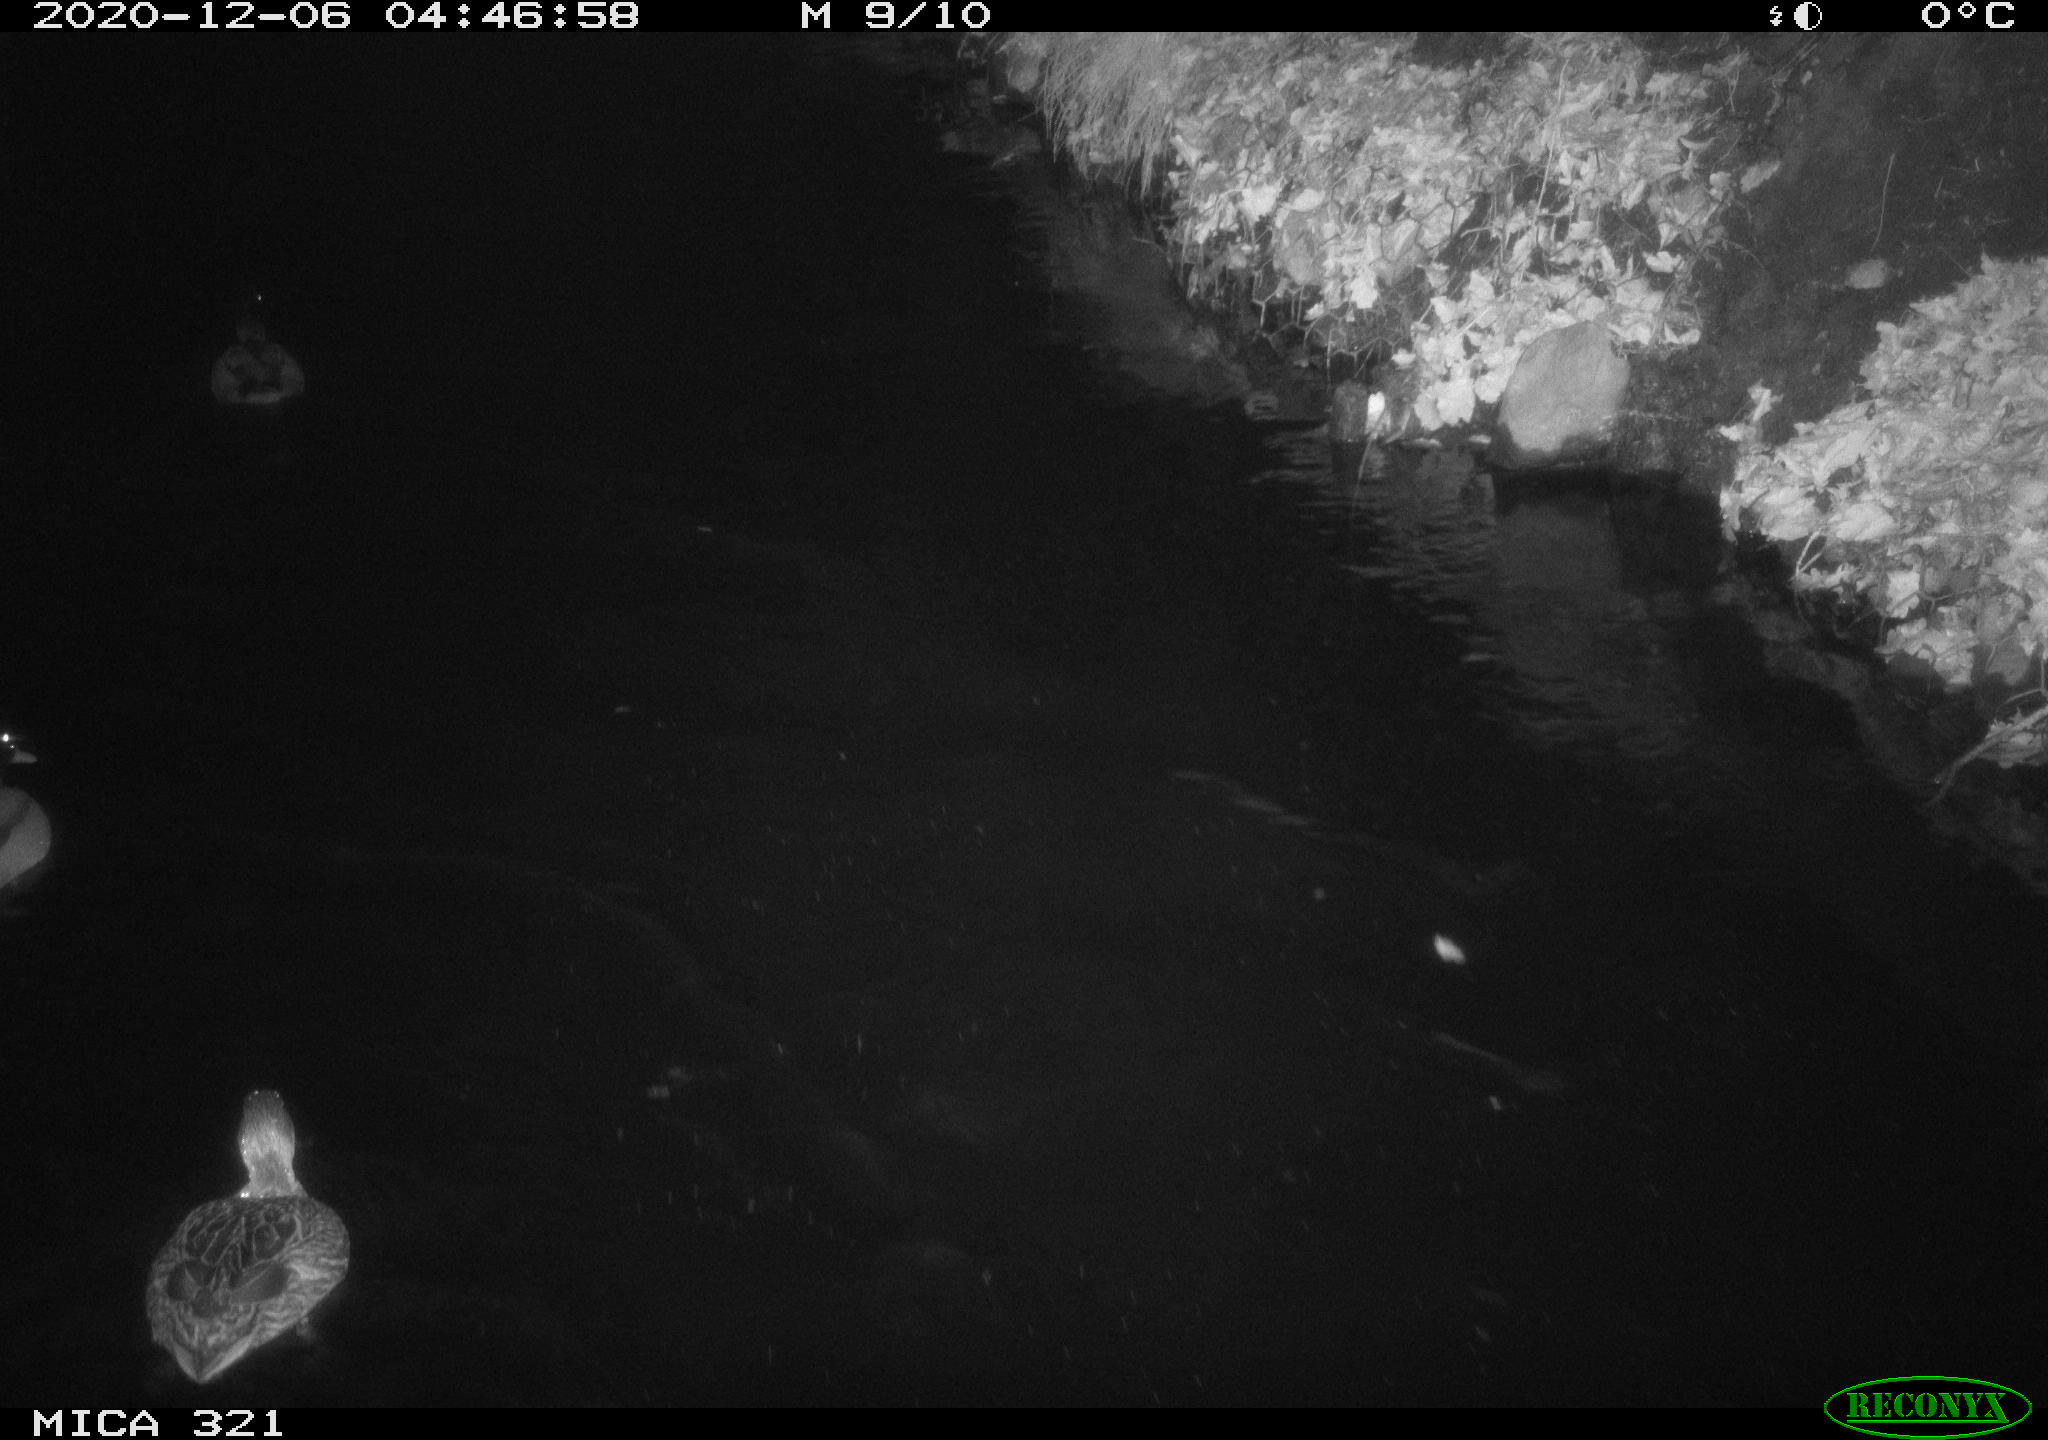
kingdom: Animalia
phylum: Chordata
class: Aves
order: Anseriformes
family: Anatidae
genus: Anas
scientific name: Anas platyrhynchos
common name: Mallard
